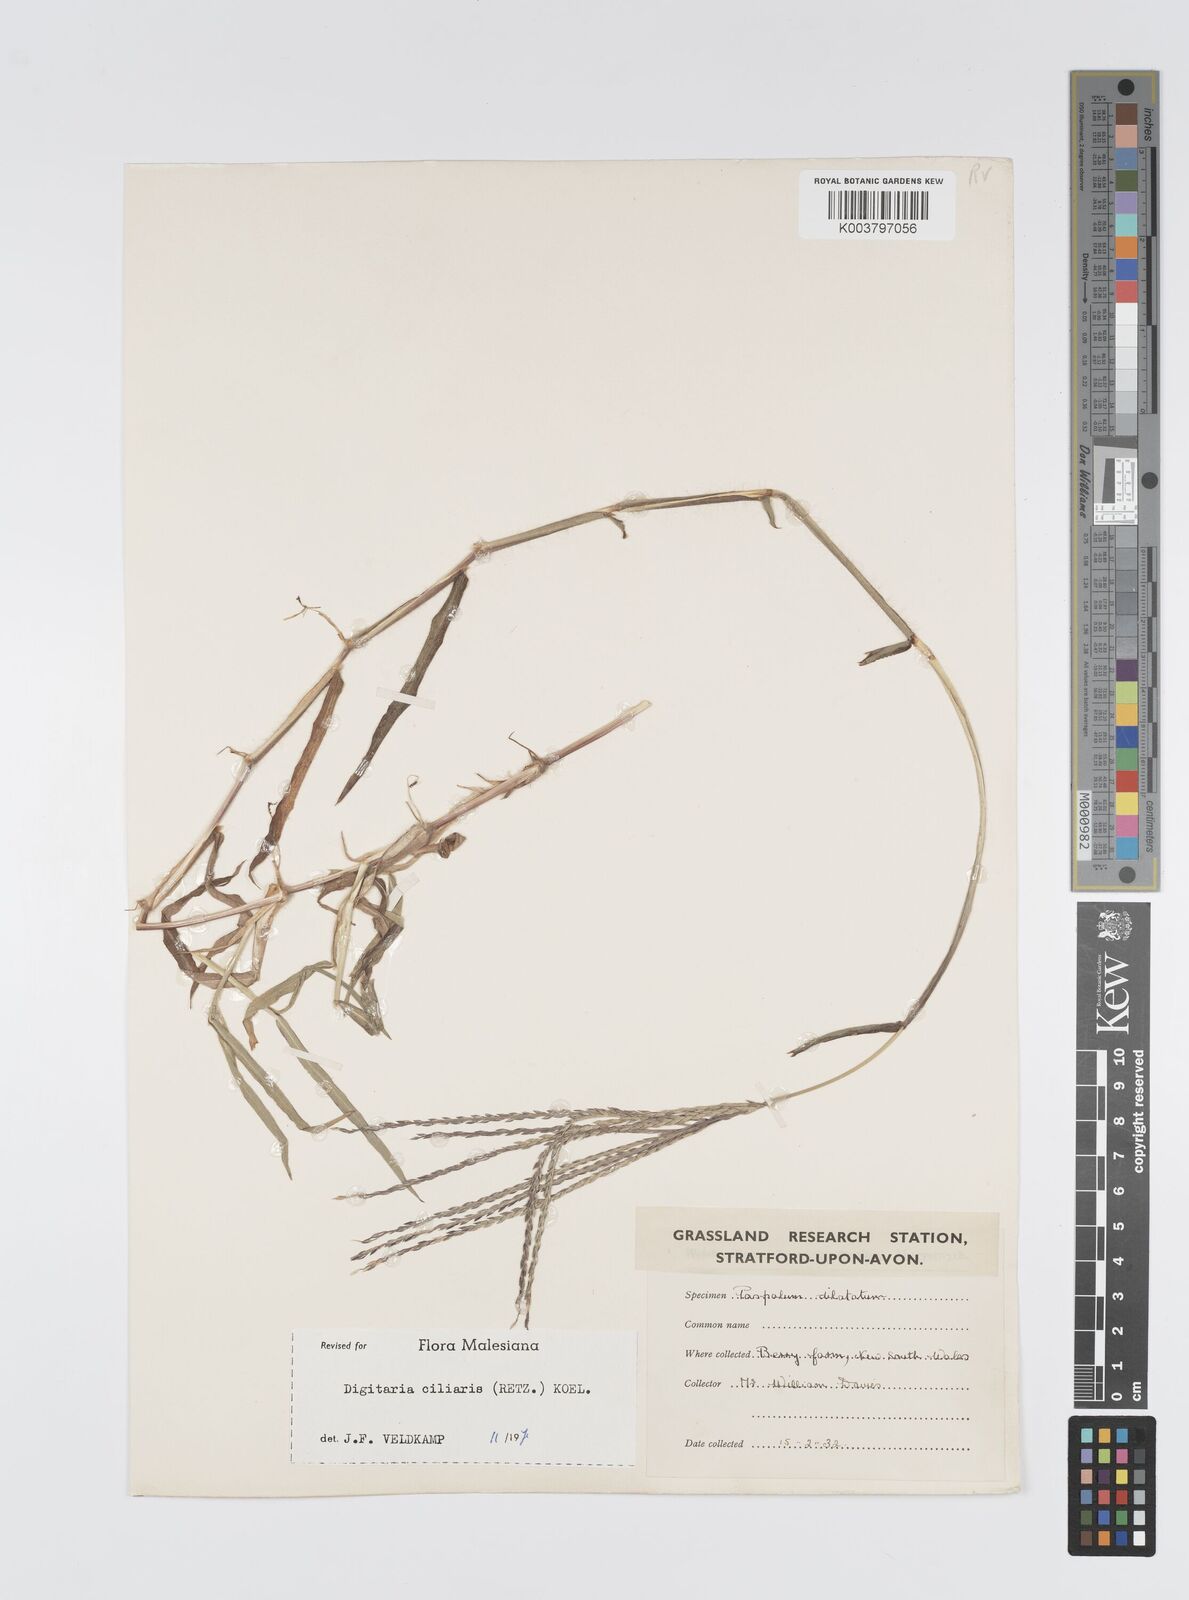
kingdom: Plantae
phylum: Tracheophyta
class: Liliopsida
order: Poales
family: Poaceae
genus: Digitaria
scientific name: Digitaria ciliaris
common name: Tropical finger-grass
